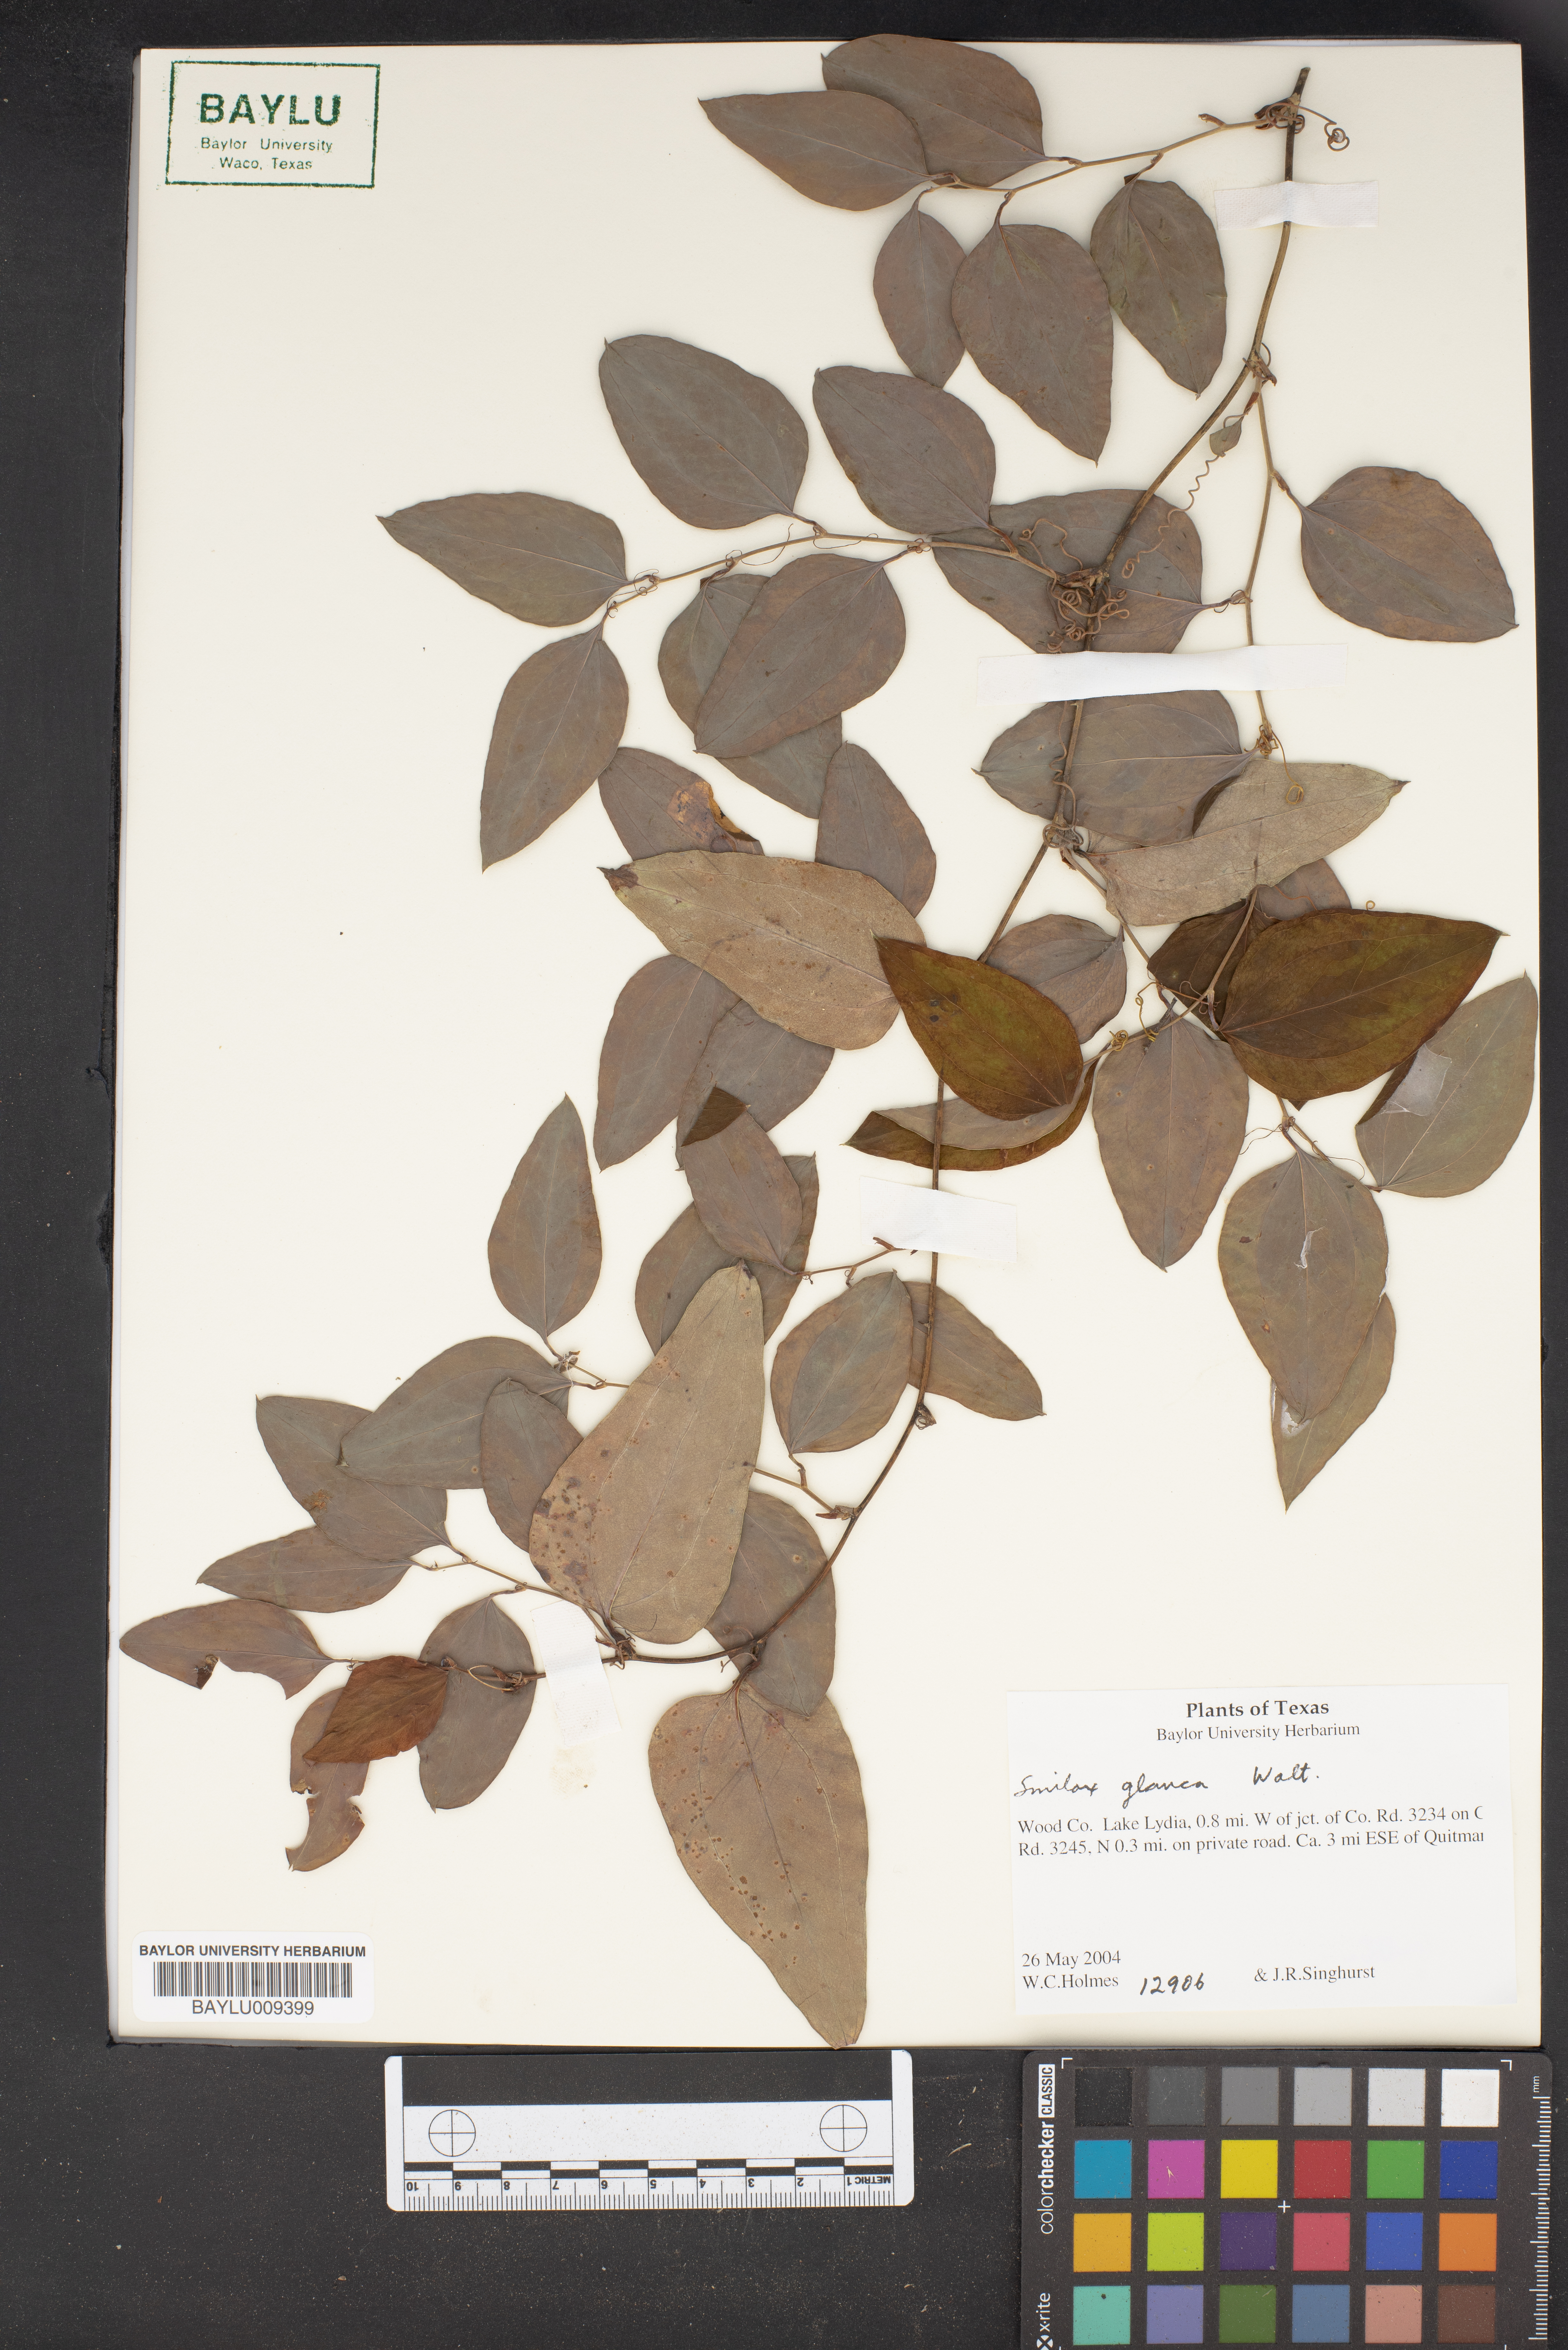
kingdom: Plantae
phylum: Tracheophyta
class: Liliopsida
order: Liliales
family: Smilacaceae
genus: Smilax
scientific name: Smilax glauca
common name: Cat greenbrier
